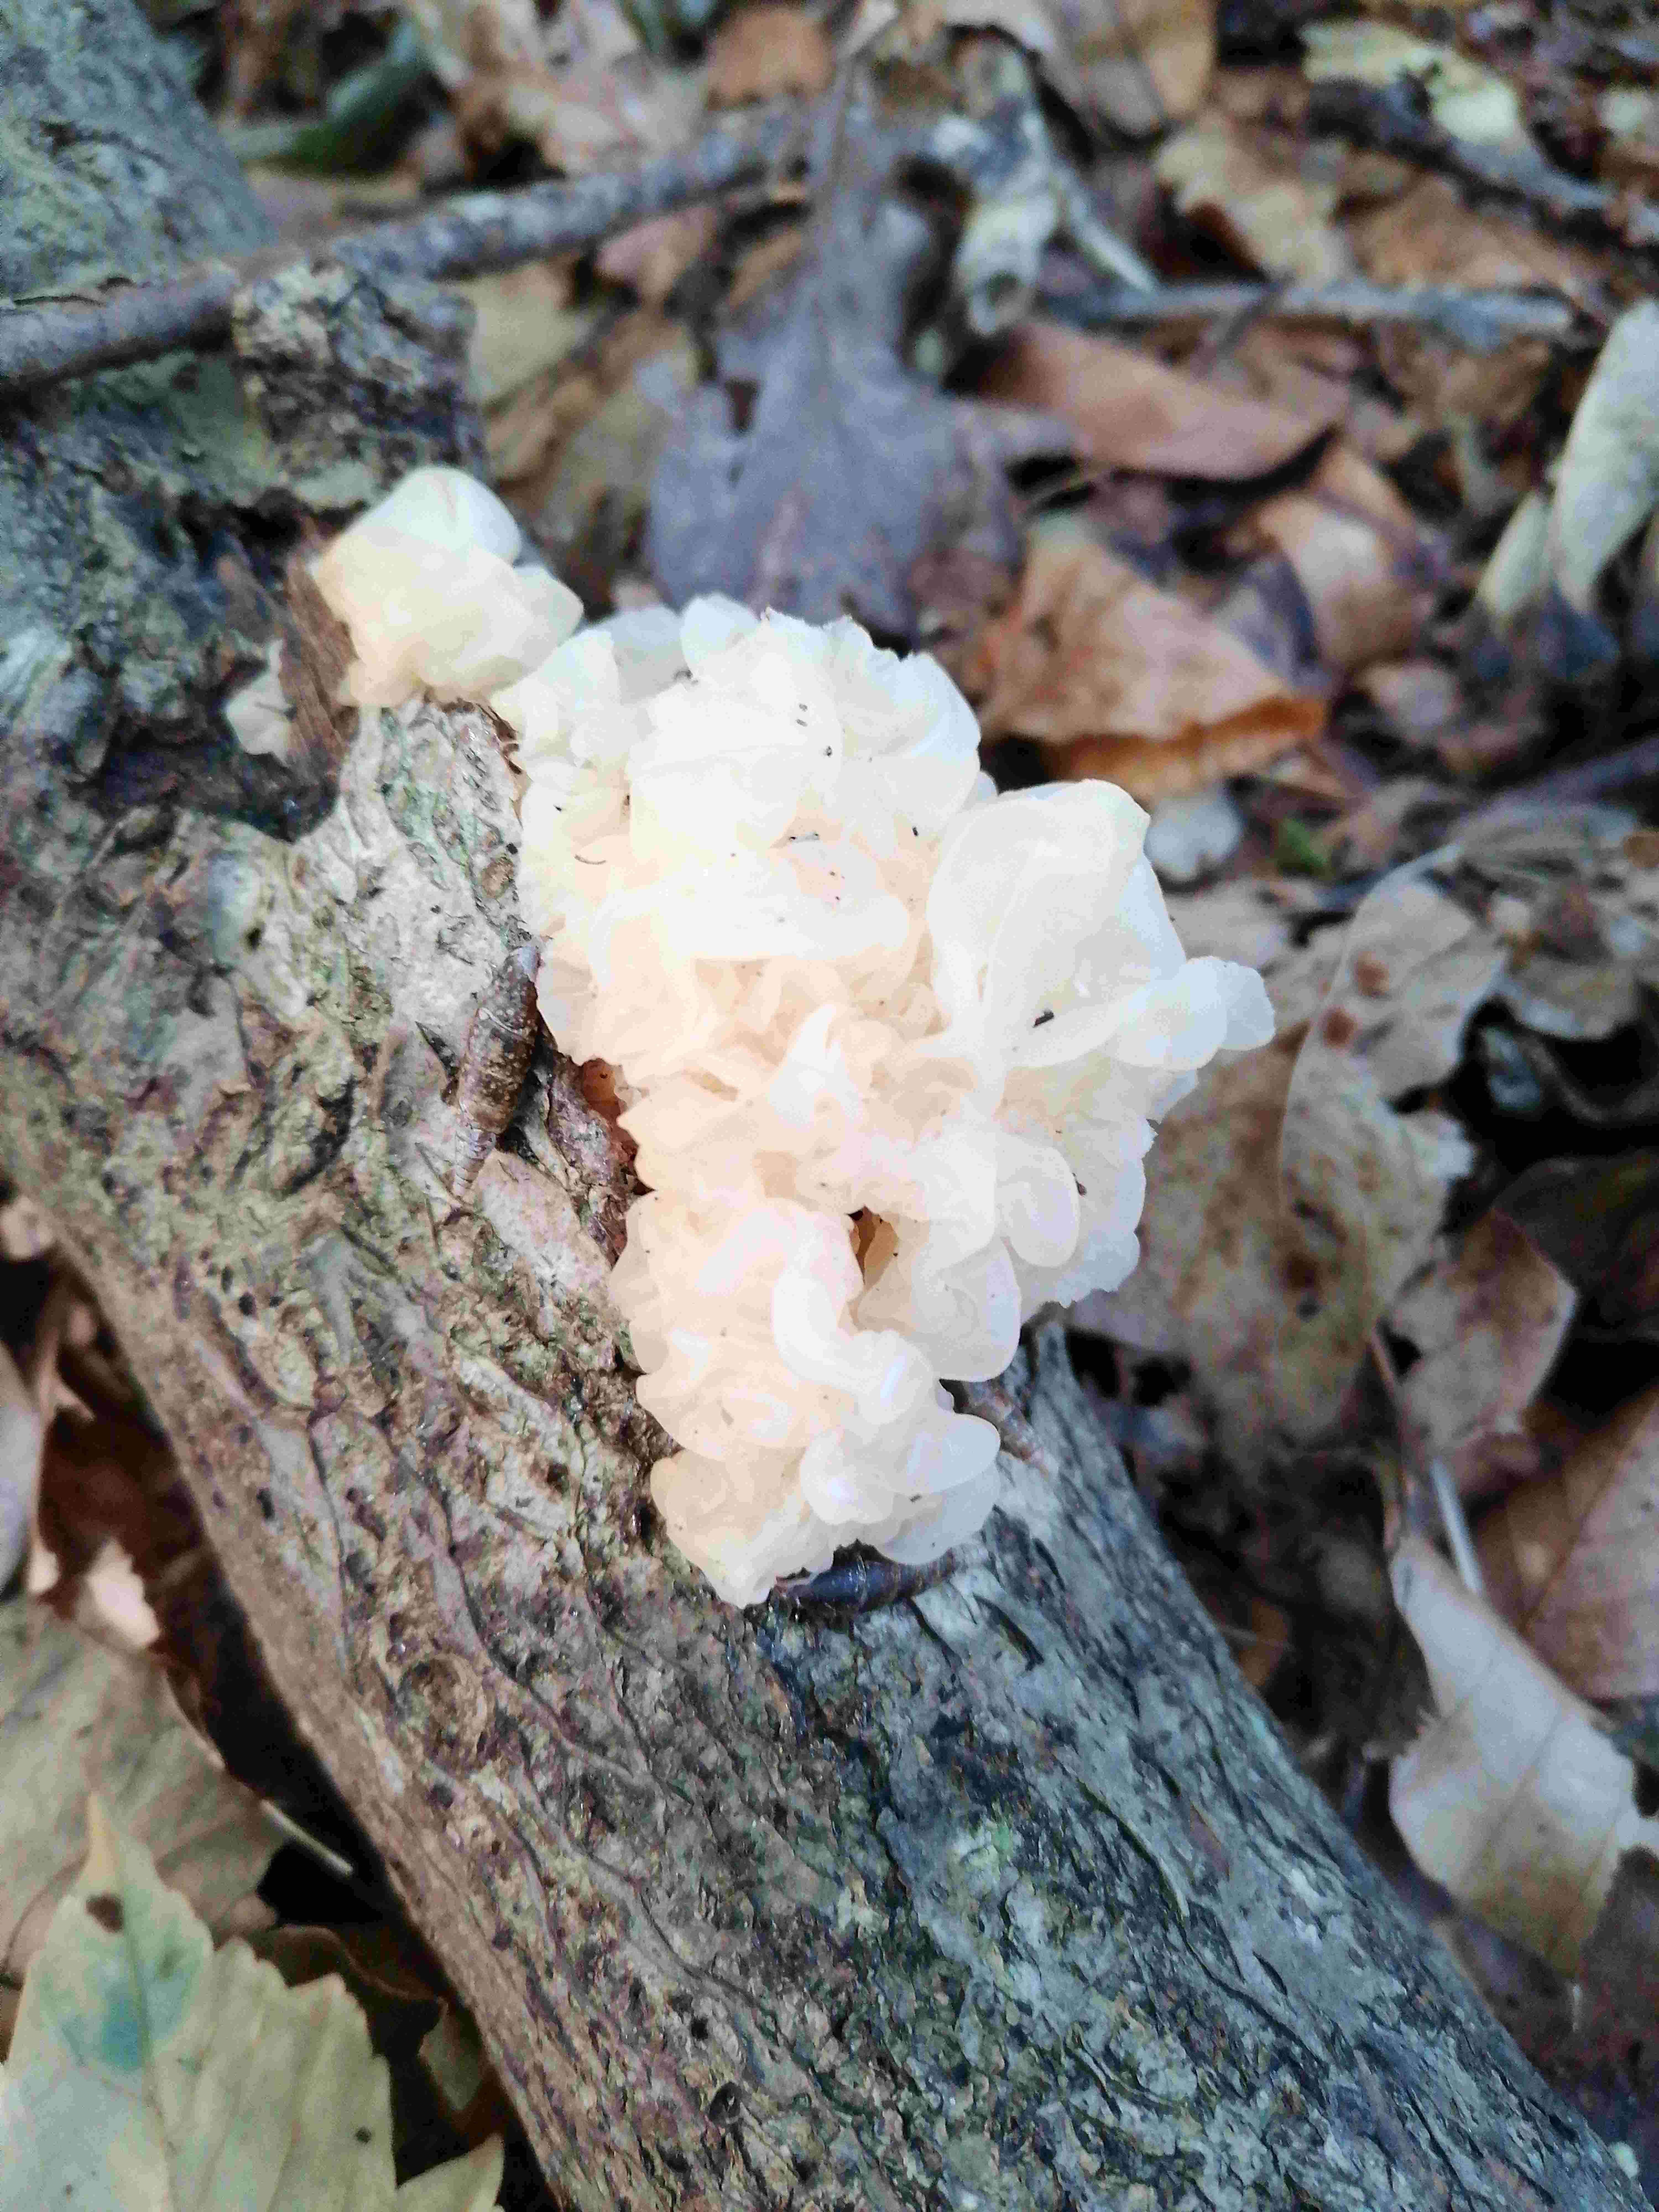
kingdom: Fungi
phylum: Basidiomycota
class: Tremellomycetes
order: Tremellales
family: Tremellaceae
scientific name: Tremellaceae
